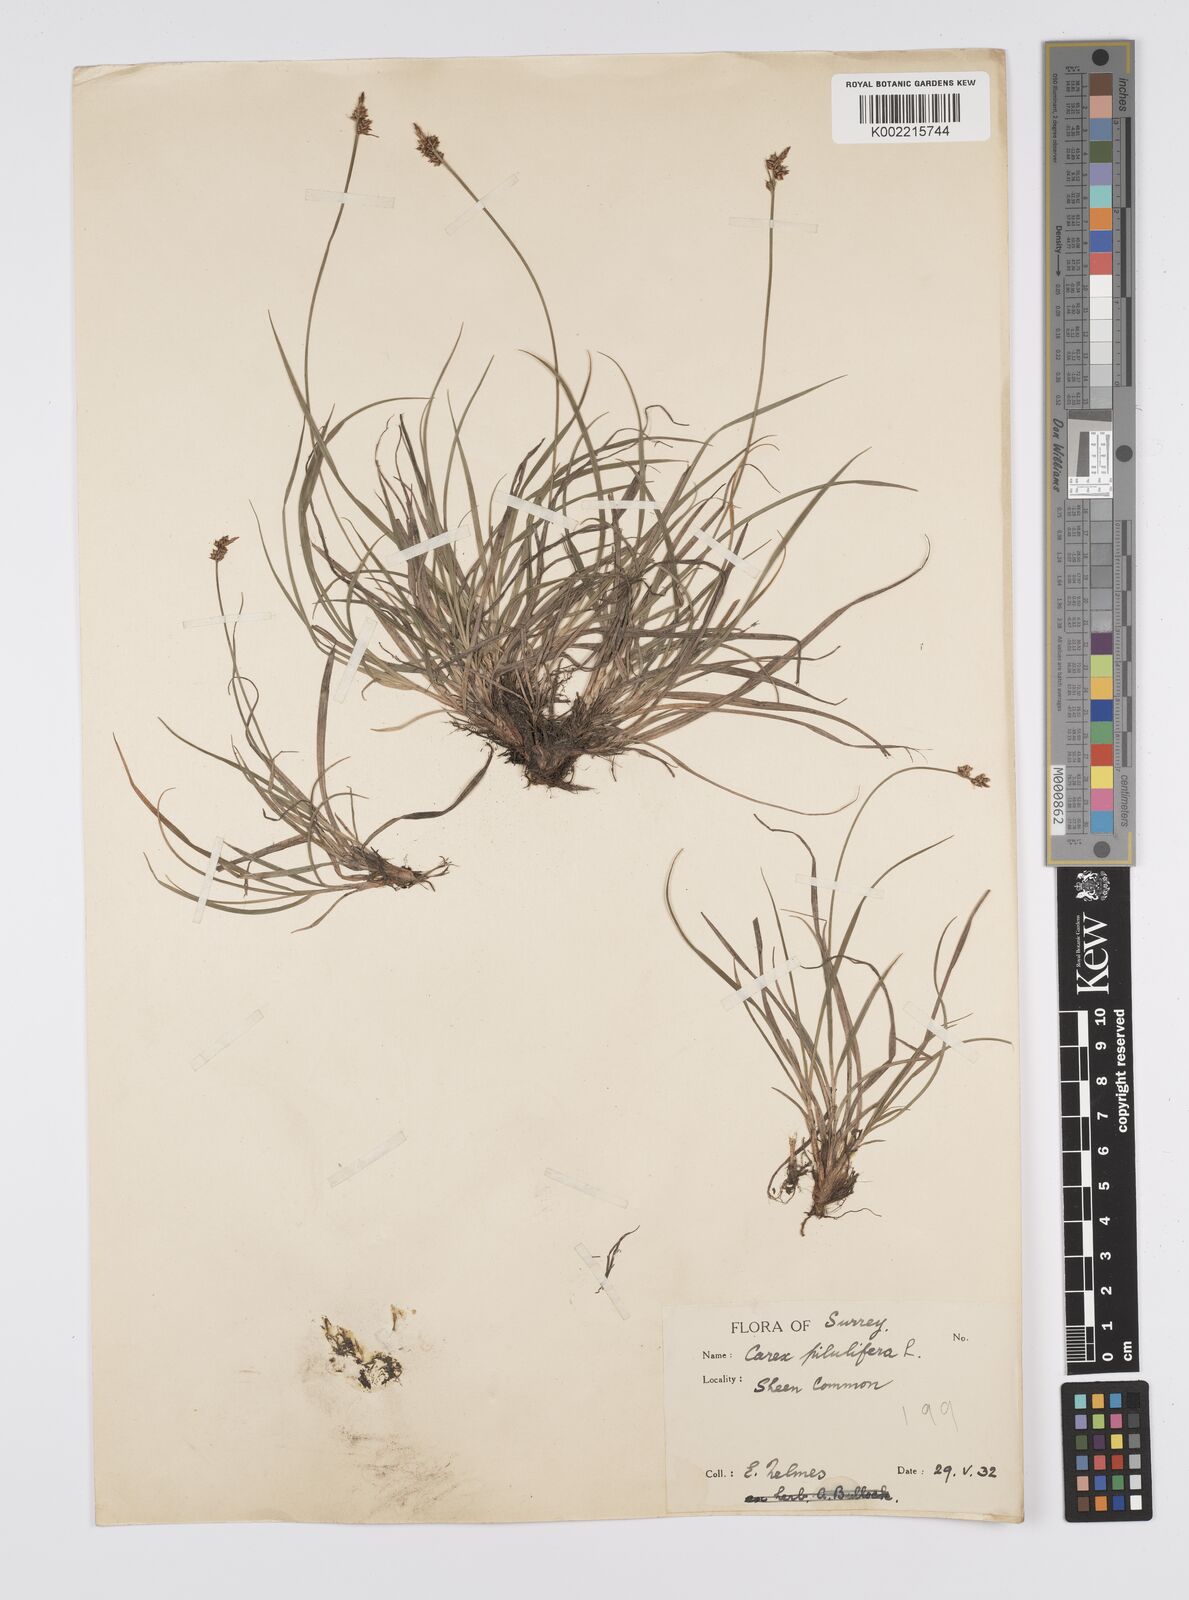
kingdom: Plantae
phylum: Tracheophyta
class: Liliopsida
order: Poales
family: Cyperaceae
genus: Carex
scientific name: Carex
